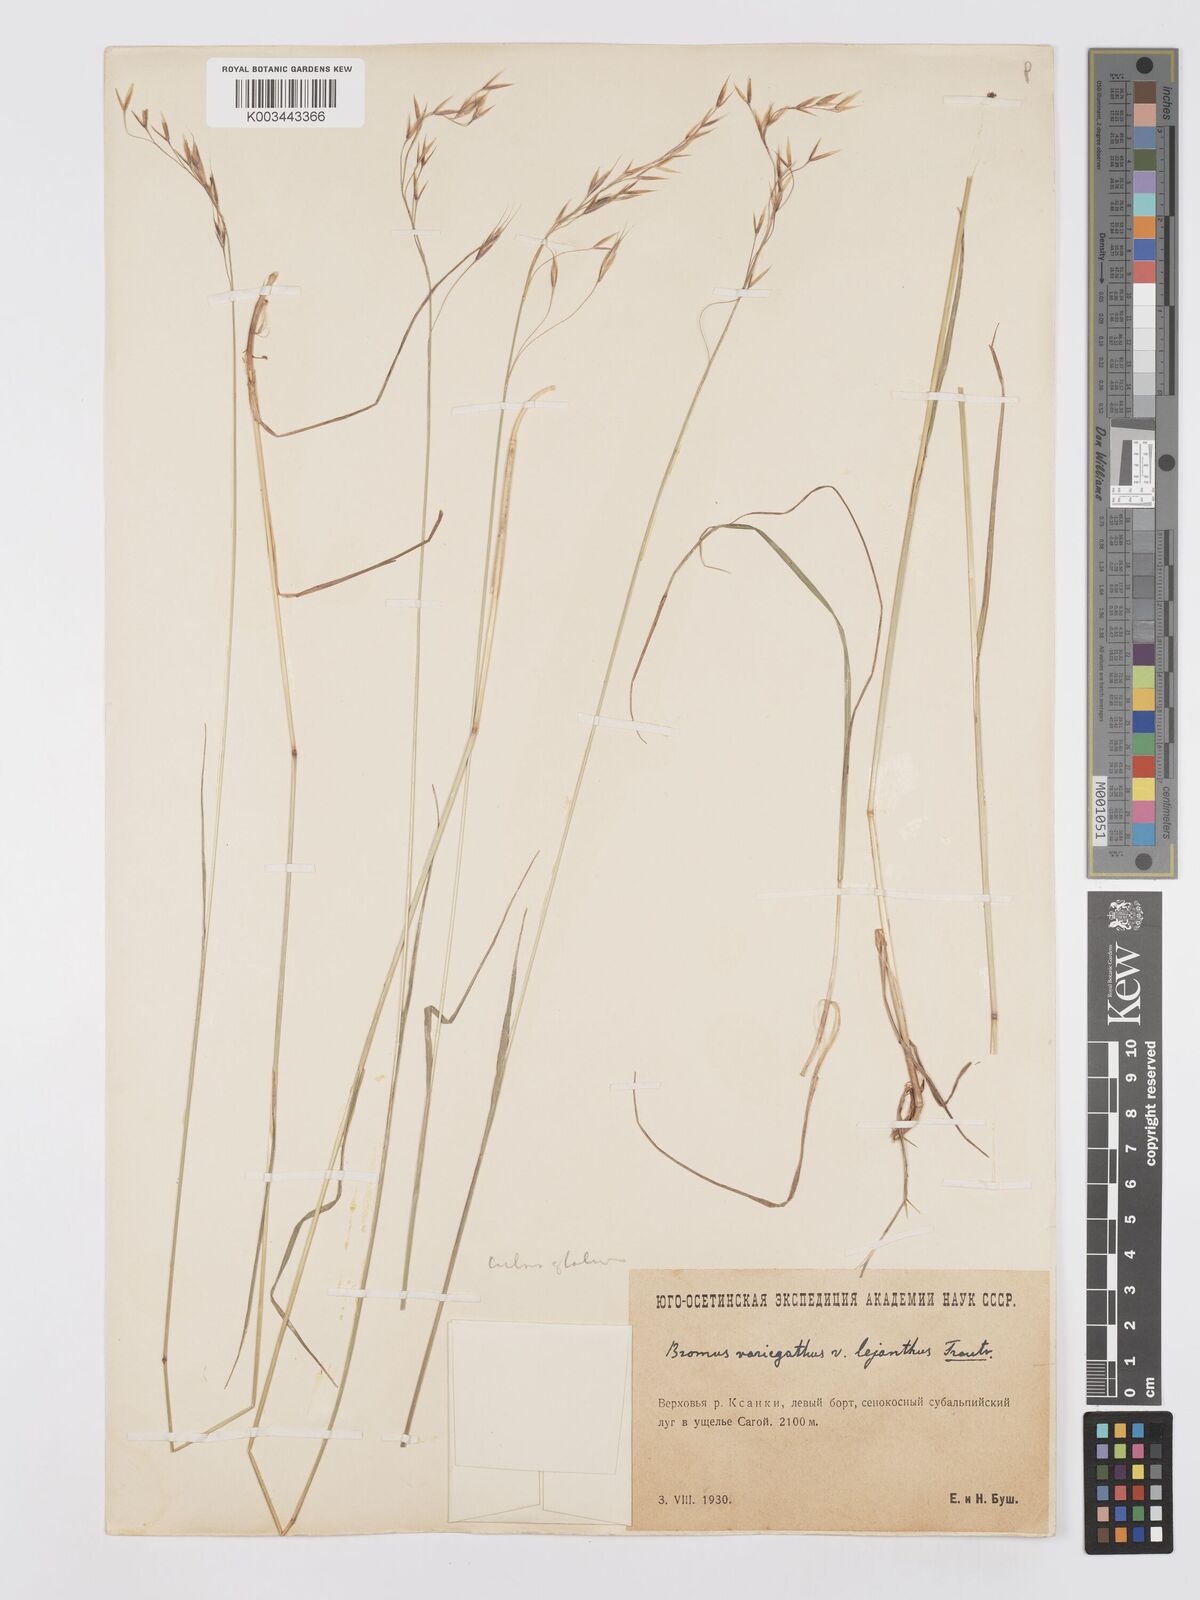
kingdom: Plantae
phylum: Tracheophyta
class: Liliopsida
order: Poales
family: Poaceae
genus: Bromus
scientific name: Bromus variegatus
